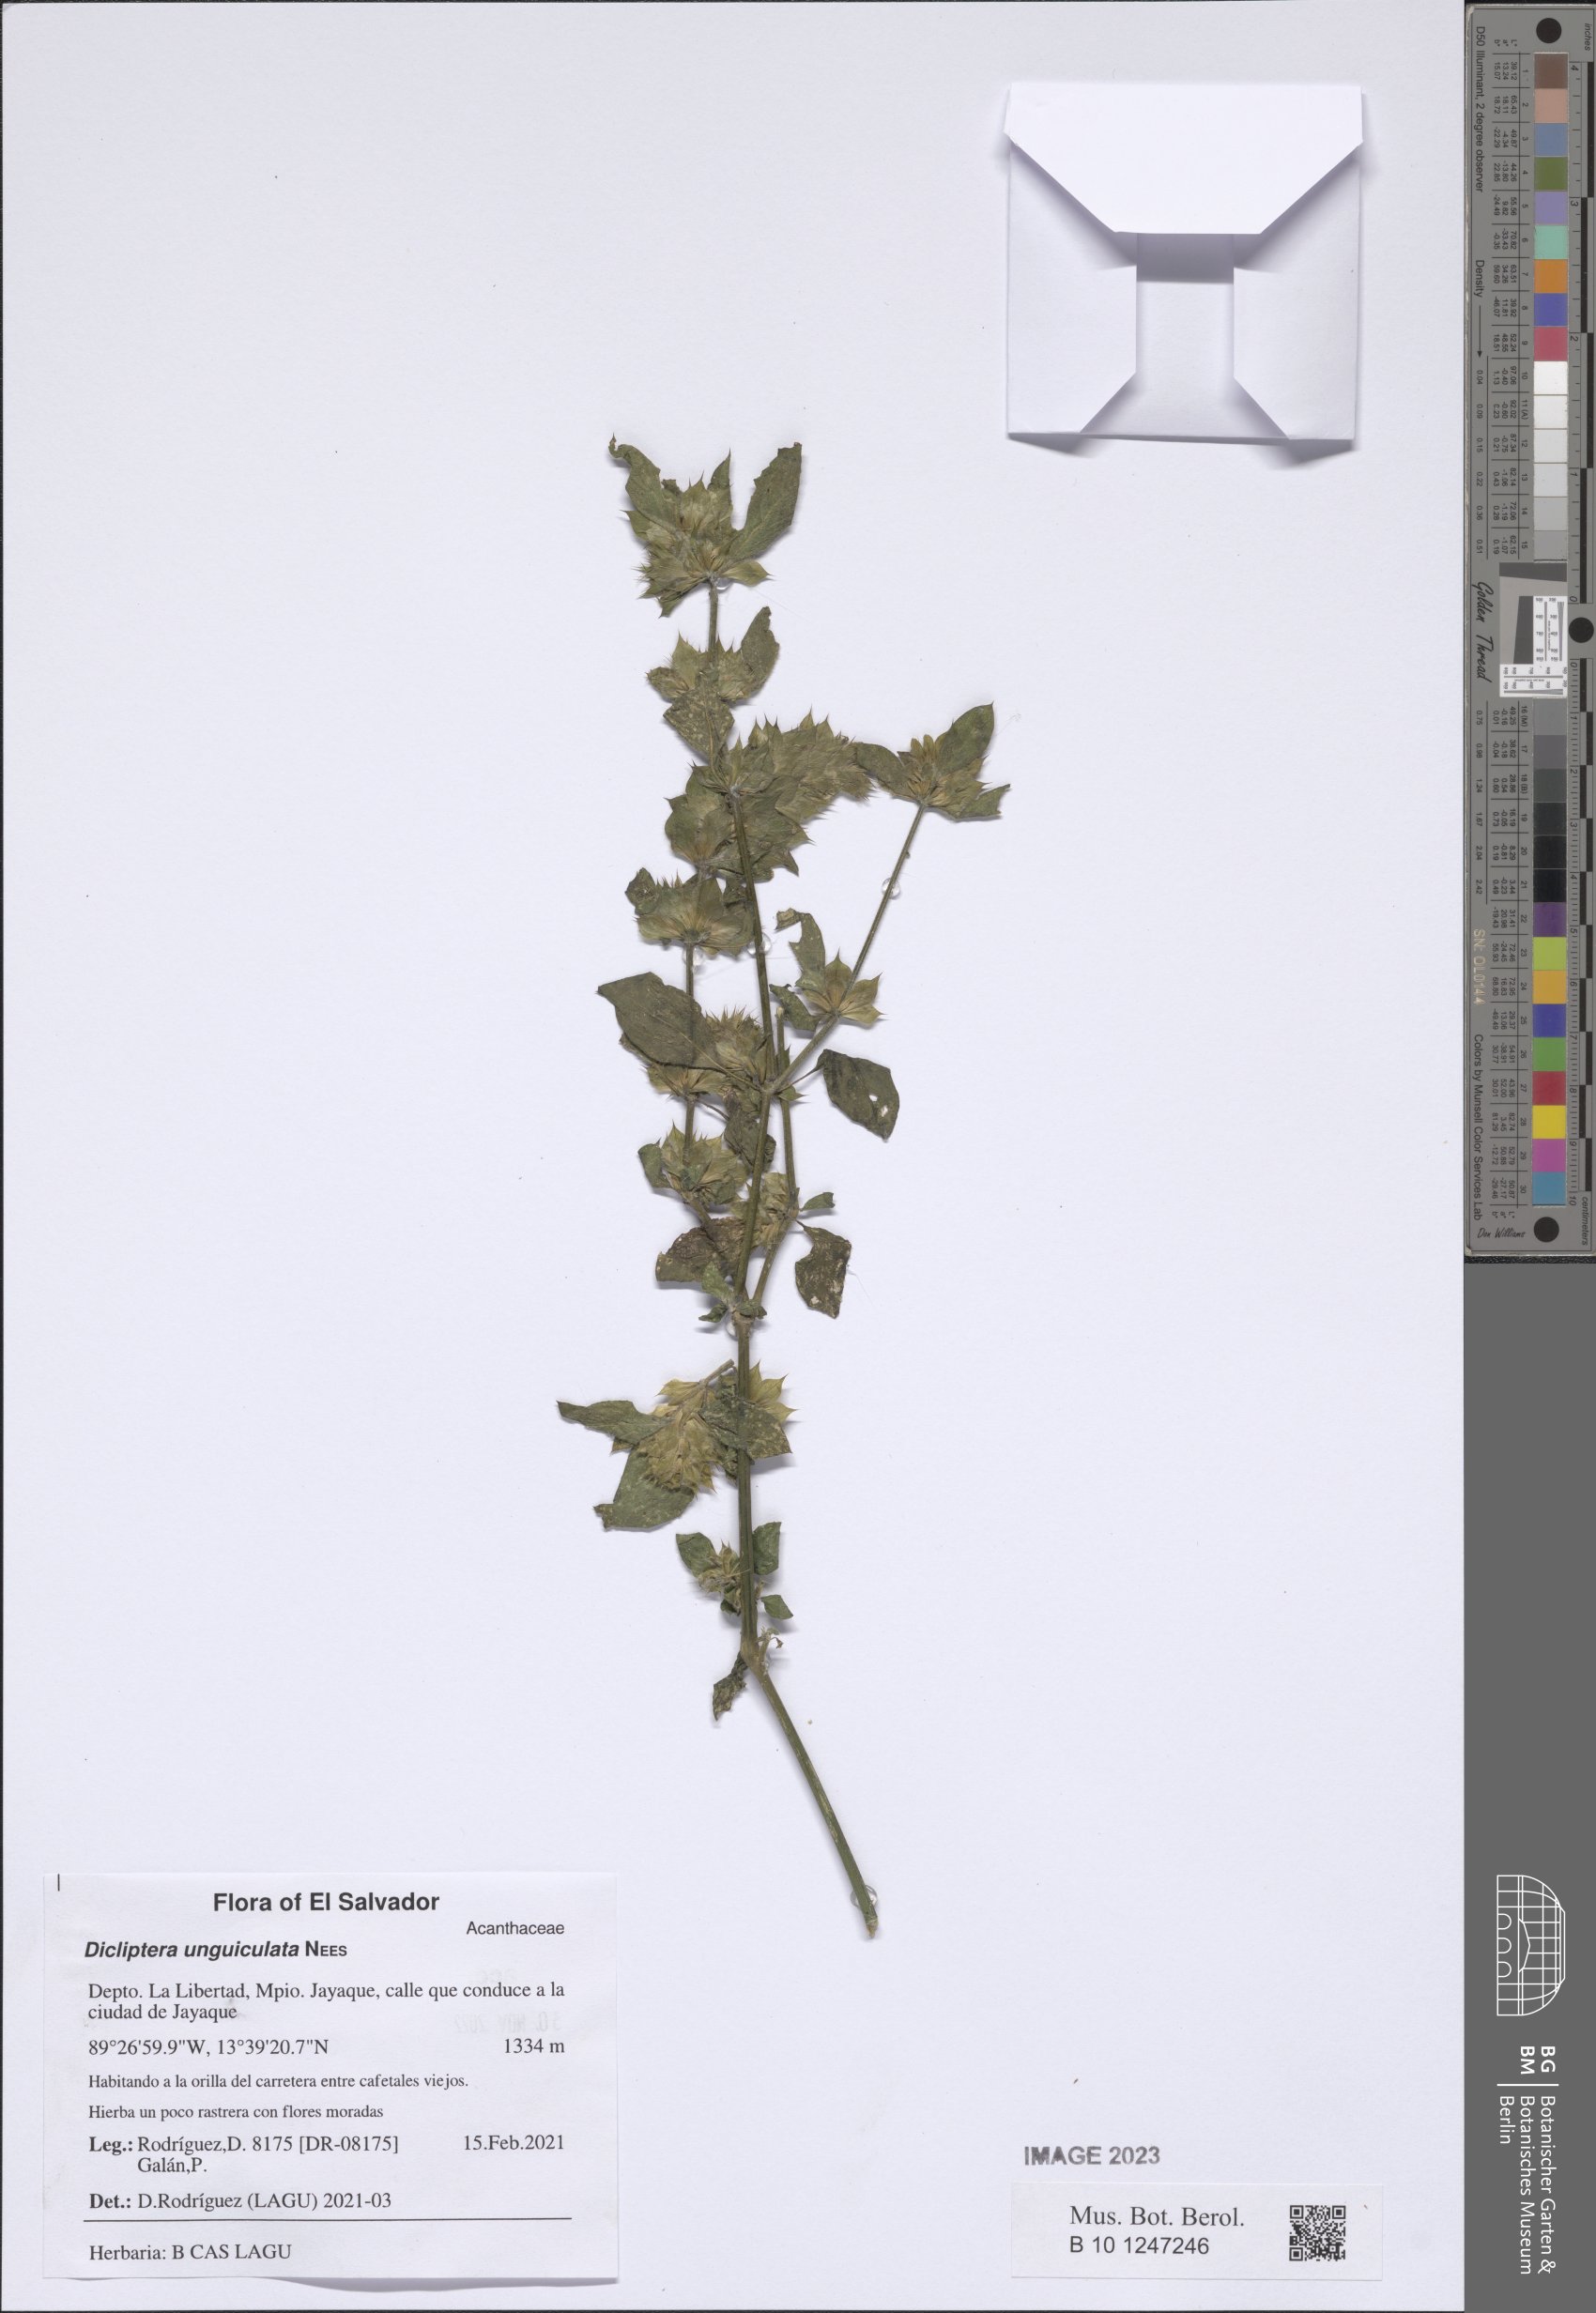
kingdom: Plantae
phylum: Tracheophyta
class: Magnoliopsida
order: Lamiales
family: Acanthaceae
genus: Dicliptera
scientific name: Dicliptera unguiculata
